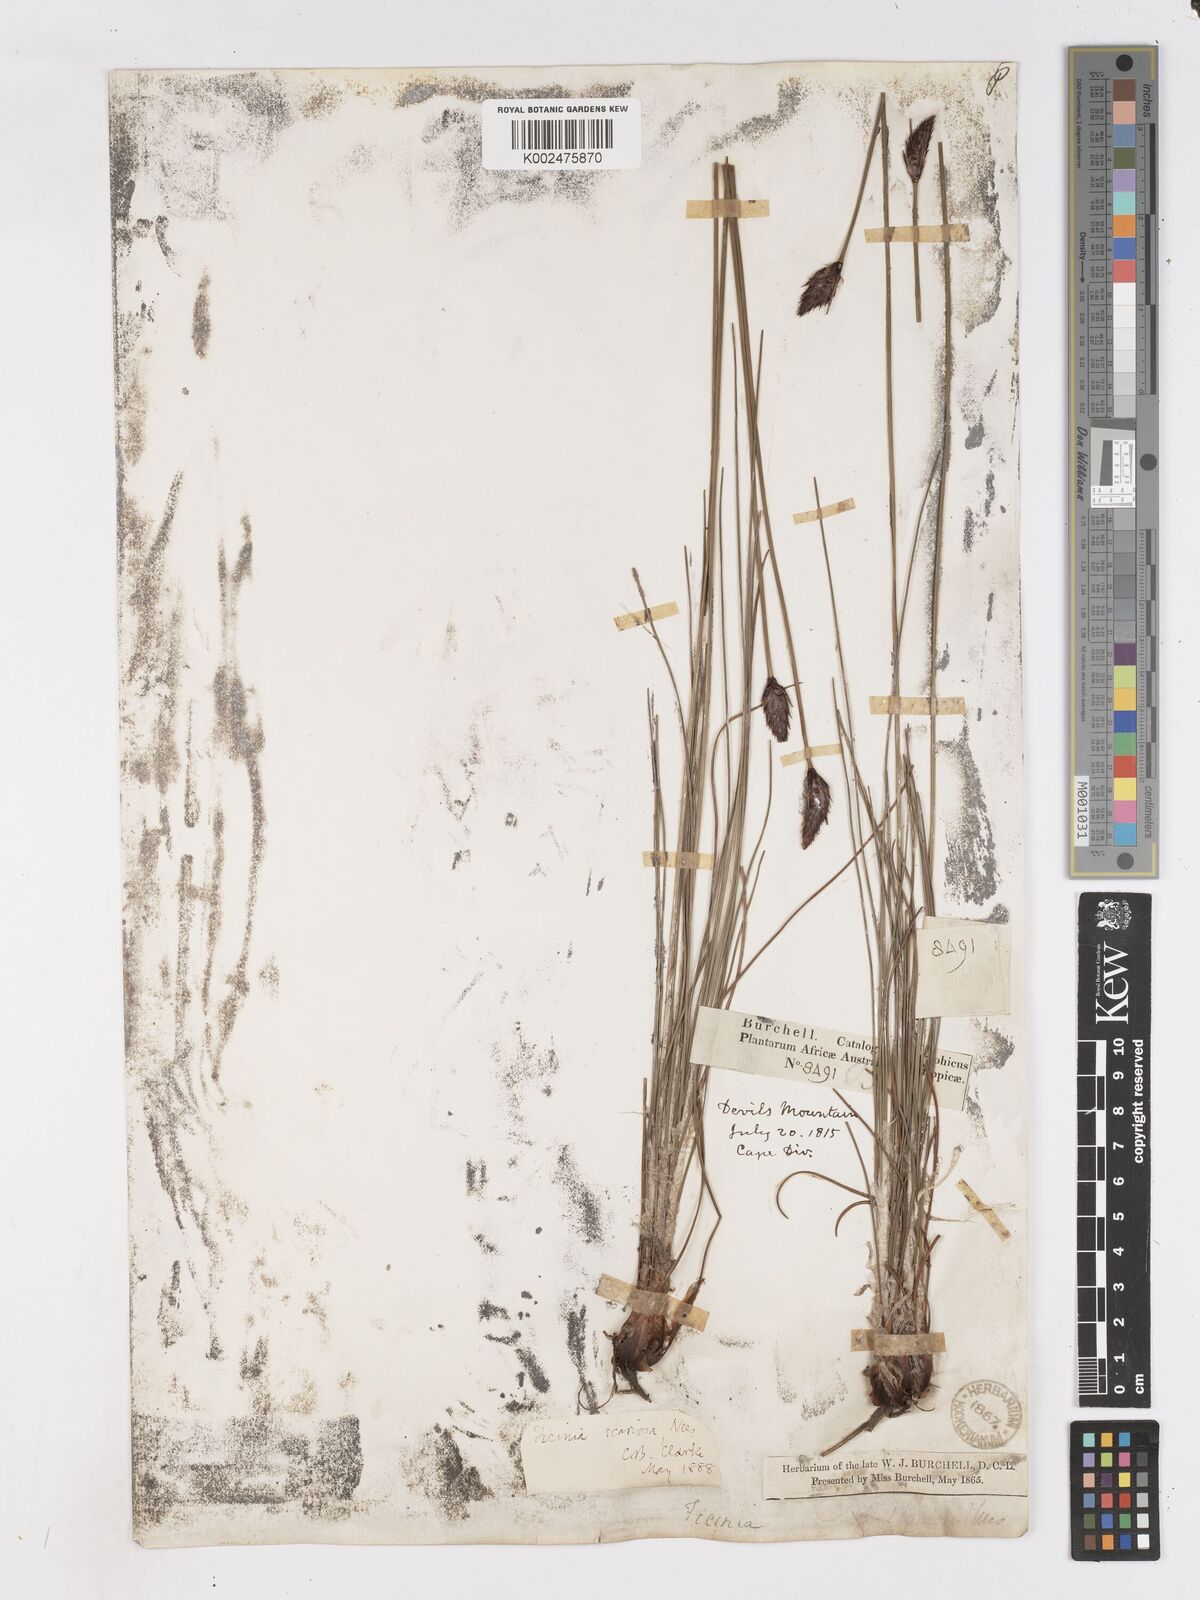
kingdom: Plantae
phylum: Tracheophyta
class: Liliopsida
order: Poales
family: Cyperaceae
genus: Ficinia
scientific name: Ficinia deusta
